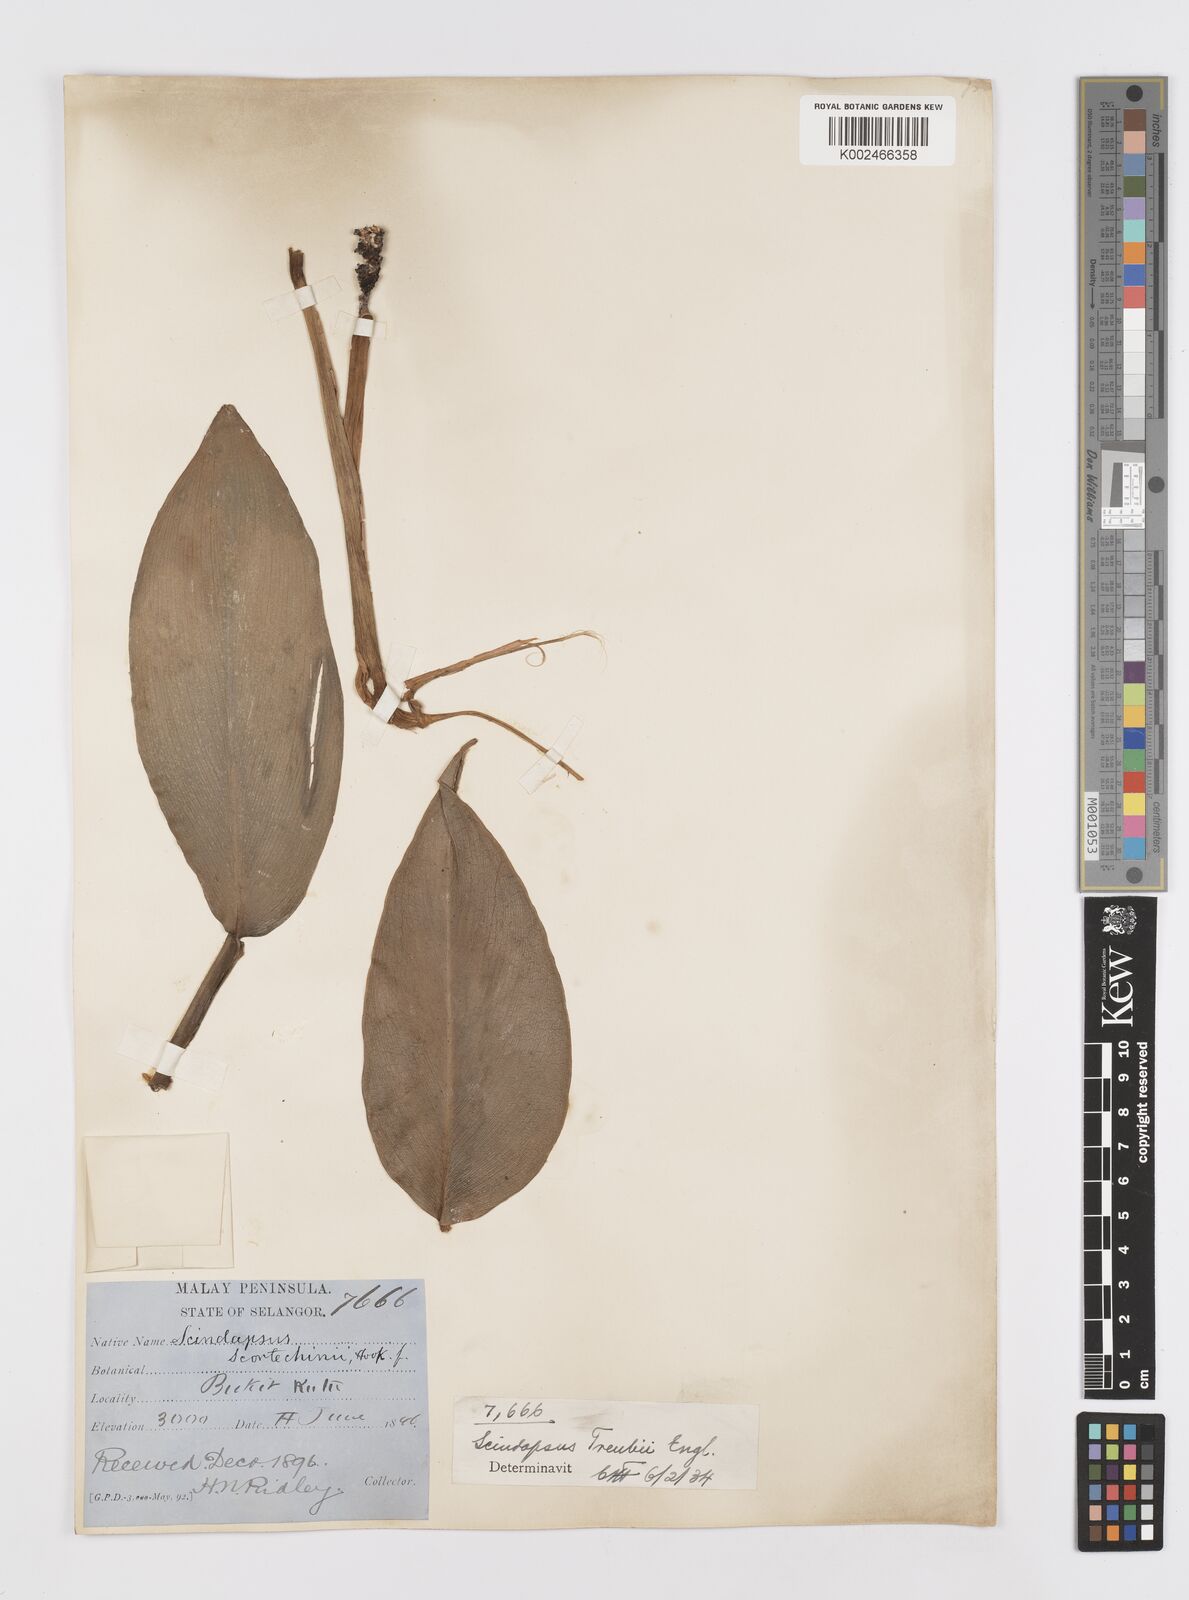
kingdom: Plantae
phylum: Tracheophyta
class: Liliopsida
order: Alismatales
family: Araceae
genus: Scindapsus
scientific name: Scindapsus scortechinii
